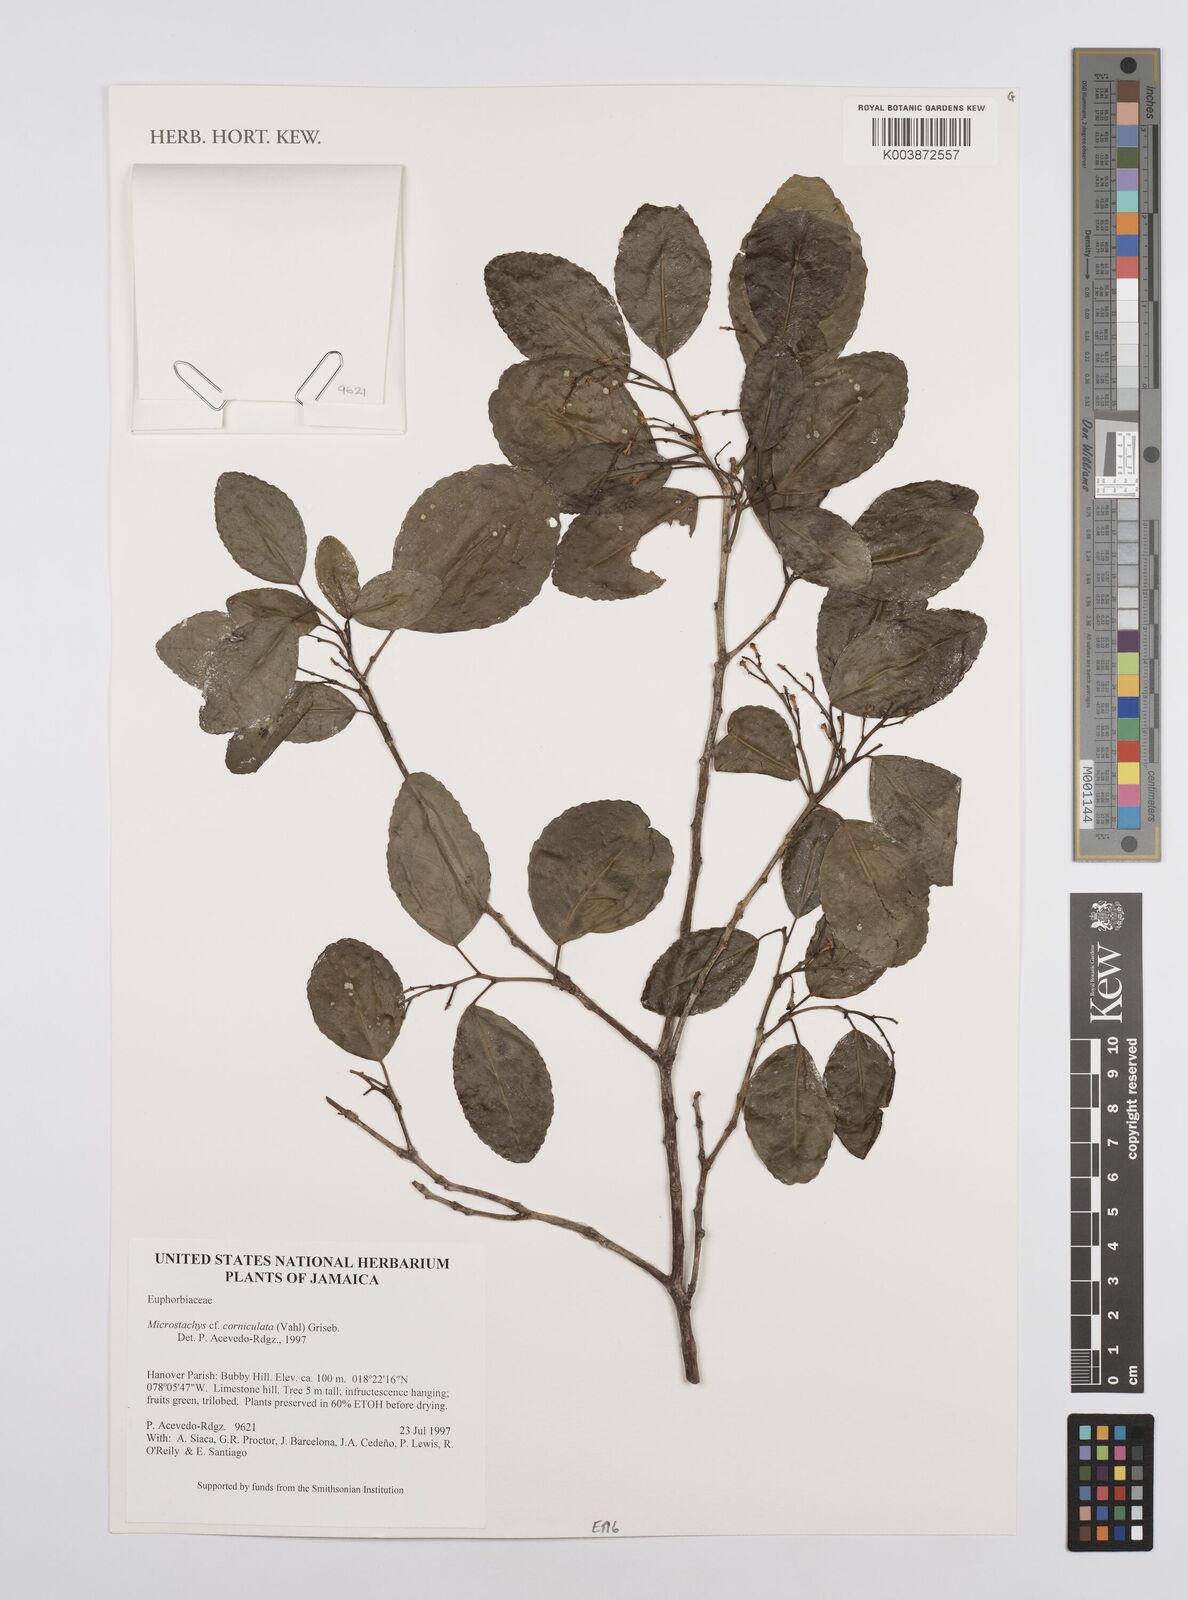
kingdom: Plantae
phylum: Tracheophyta
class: Magnoliopsida
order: Malpighiales
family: Euphorbiaceae
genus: Microstachys
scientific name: Microstachys corniculata
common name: Hato tejas
